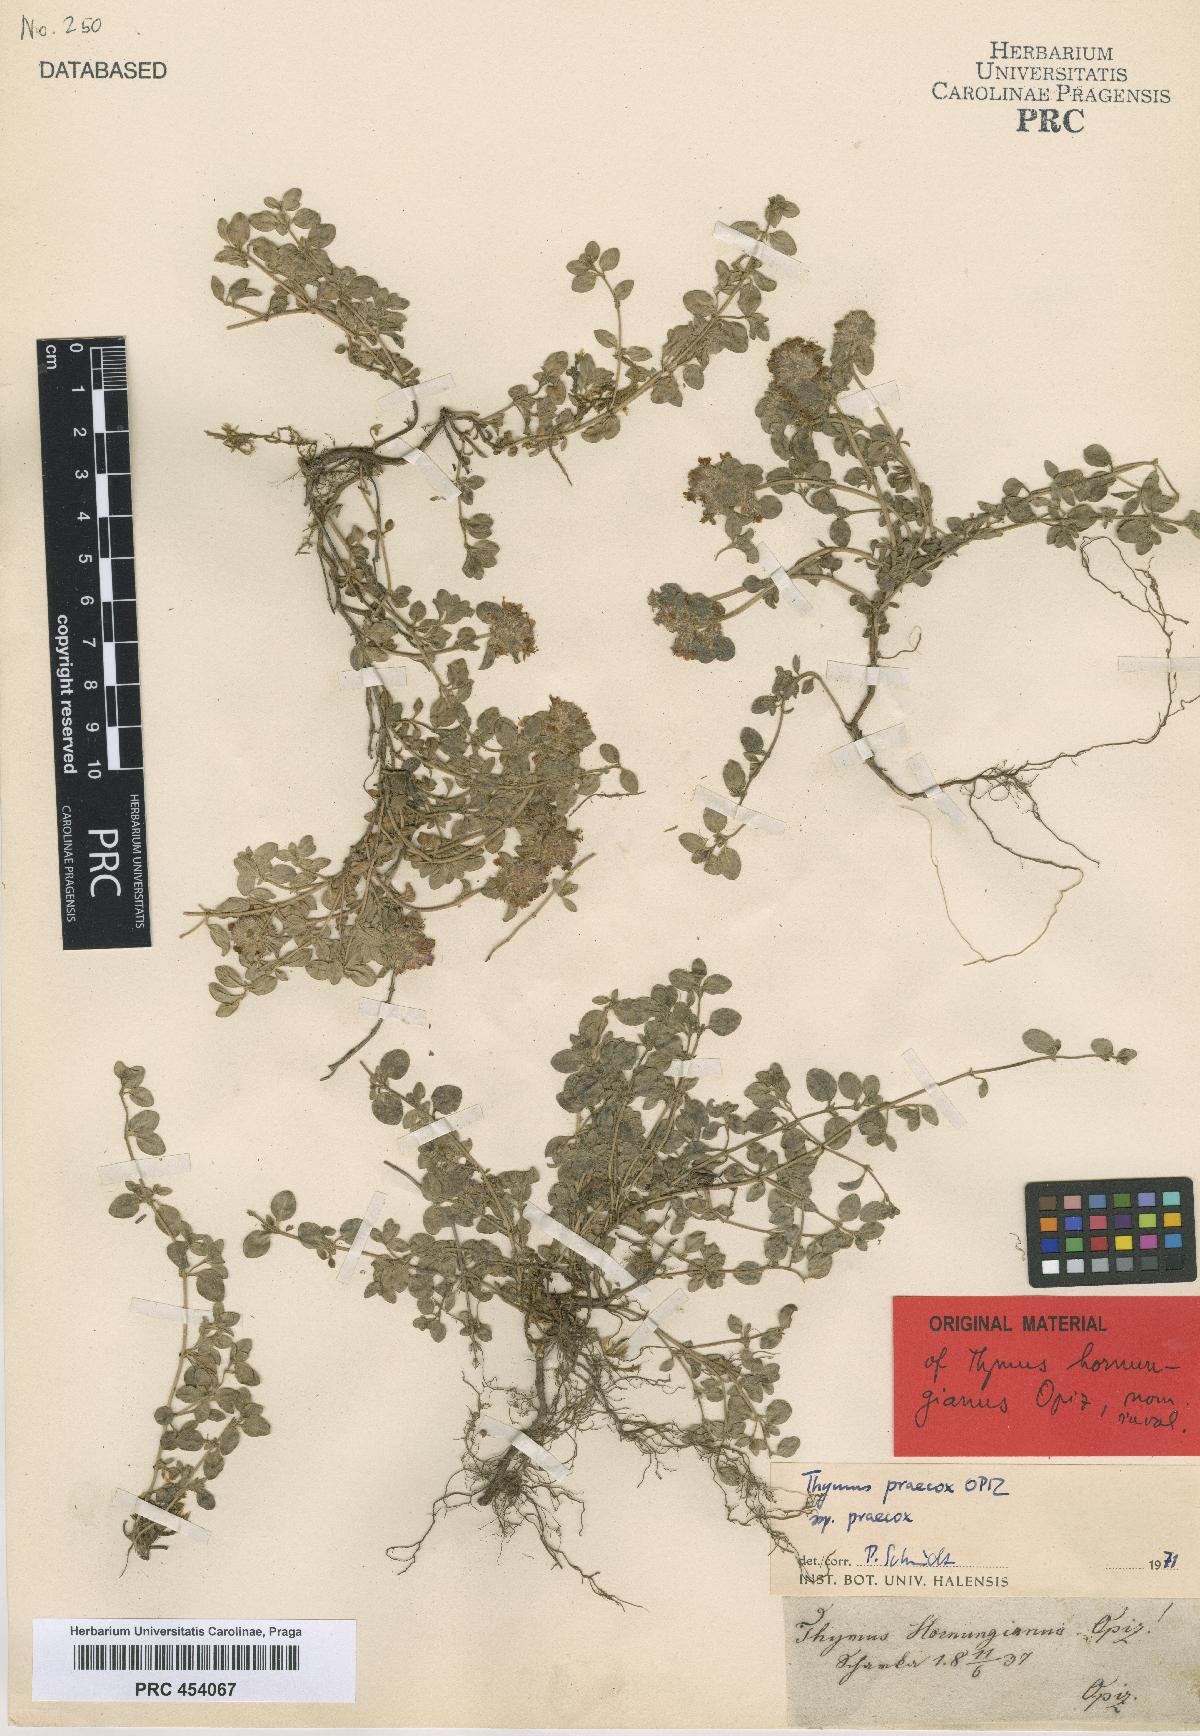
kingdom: Plantae
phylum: Tracheophyta
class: Magnoliopsida
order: Lamiales
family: Lamiaceae
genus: Thymus
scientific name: Thymus praecox
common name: Wild thyme
